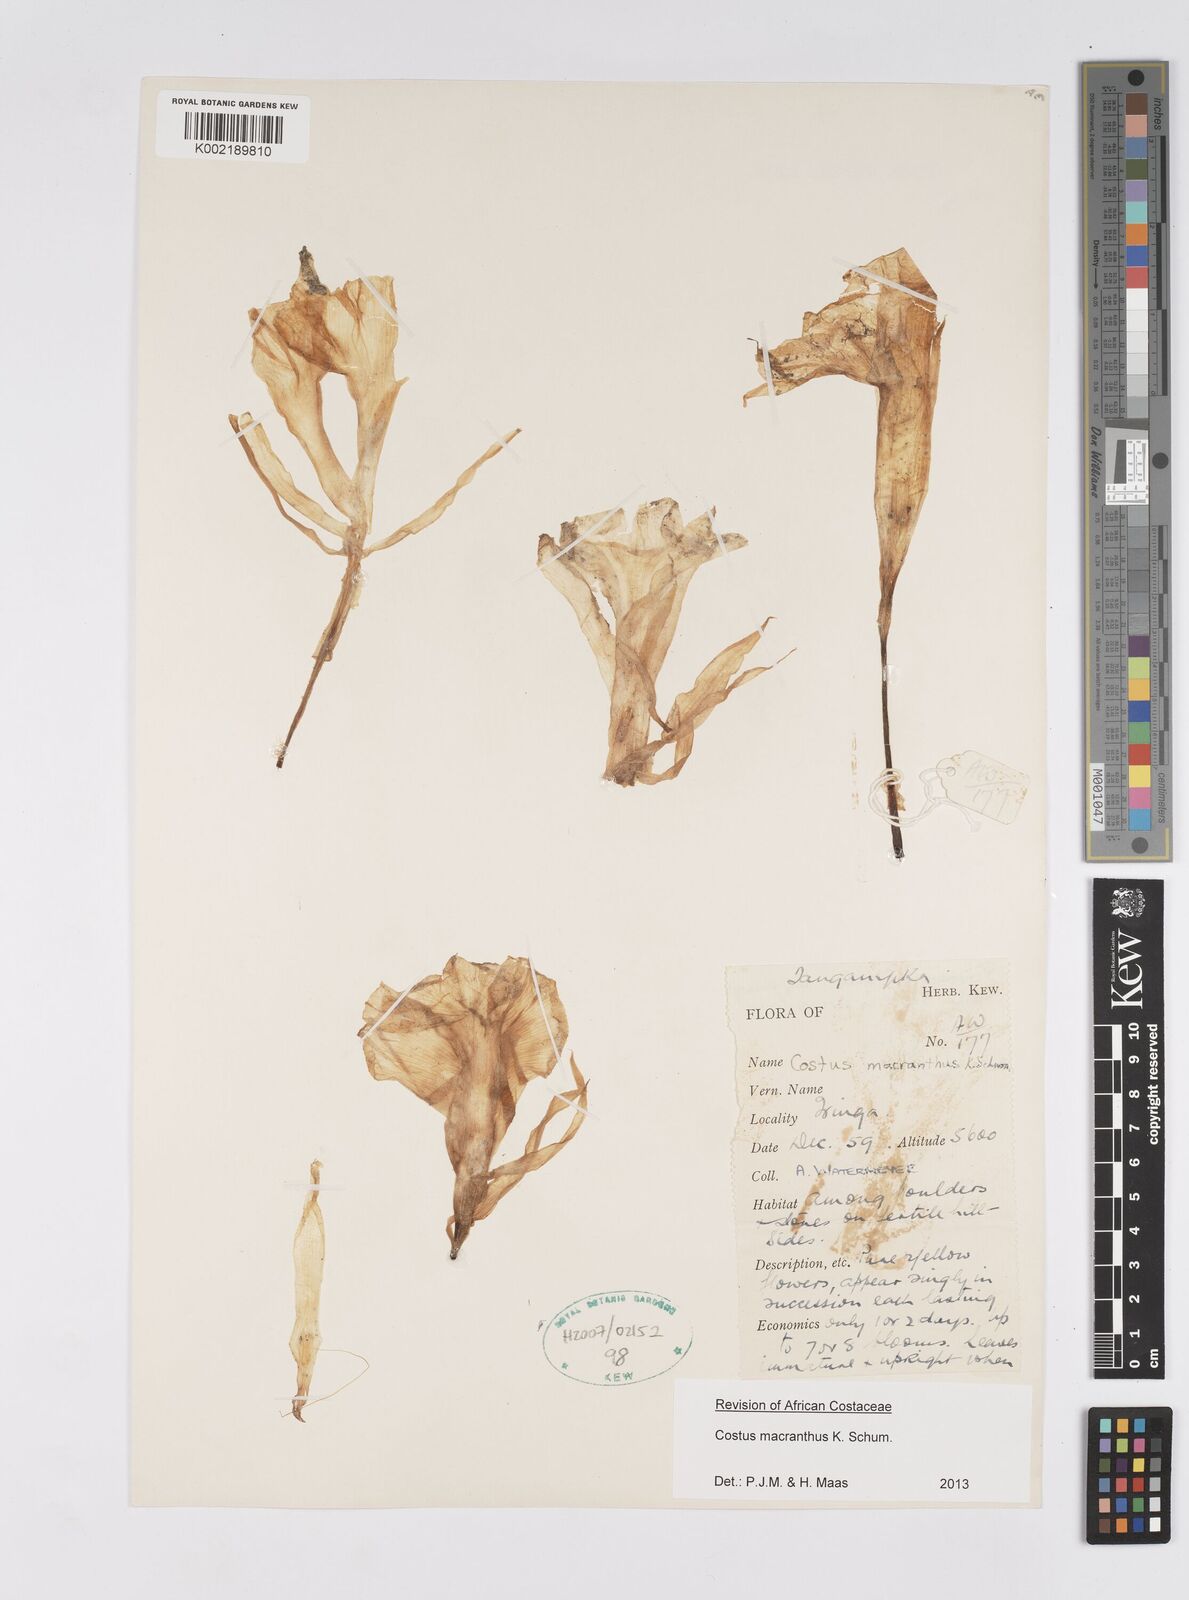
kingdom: Plantae
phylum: Tracheophyta
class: Liliopsida
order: Zingiberales
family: Costaceae
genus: Costus
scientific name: Costus macranthus
